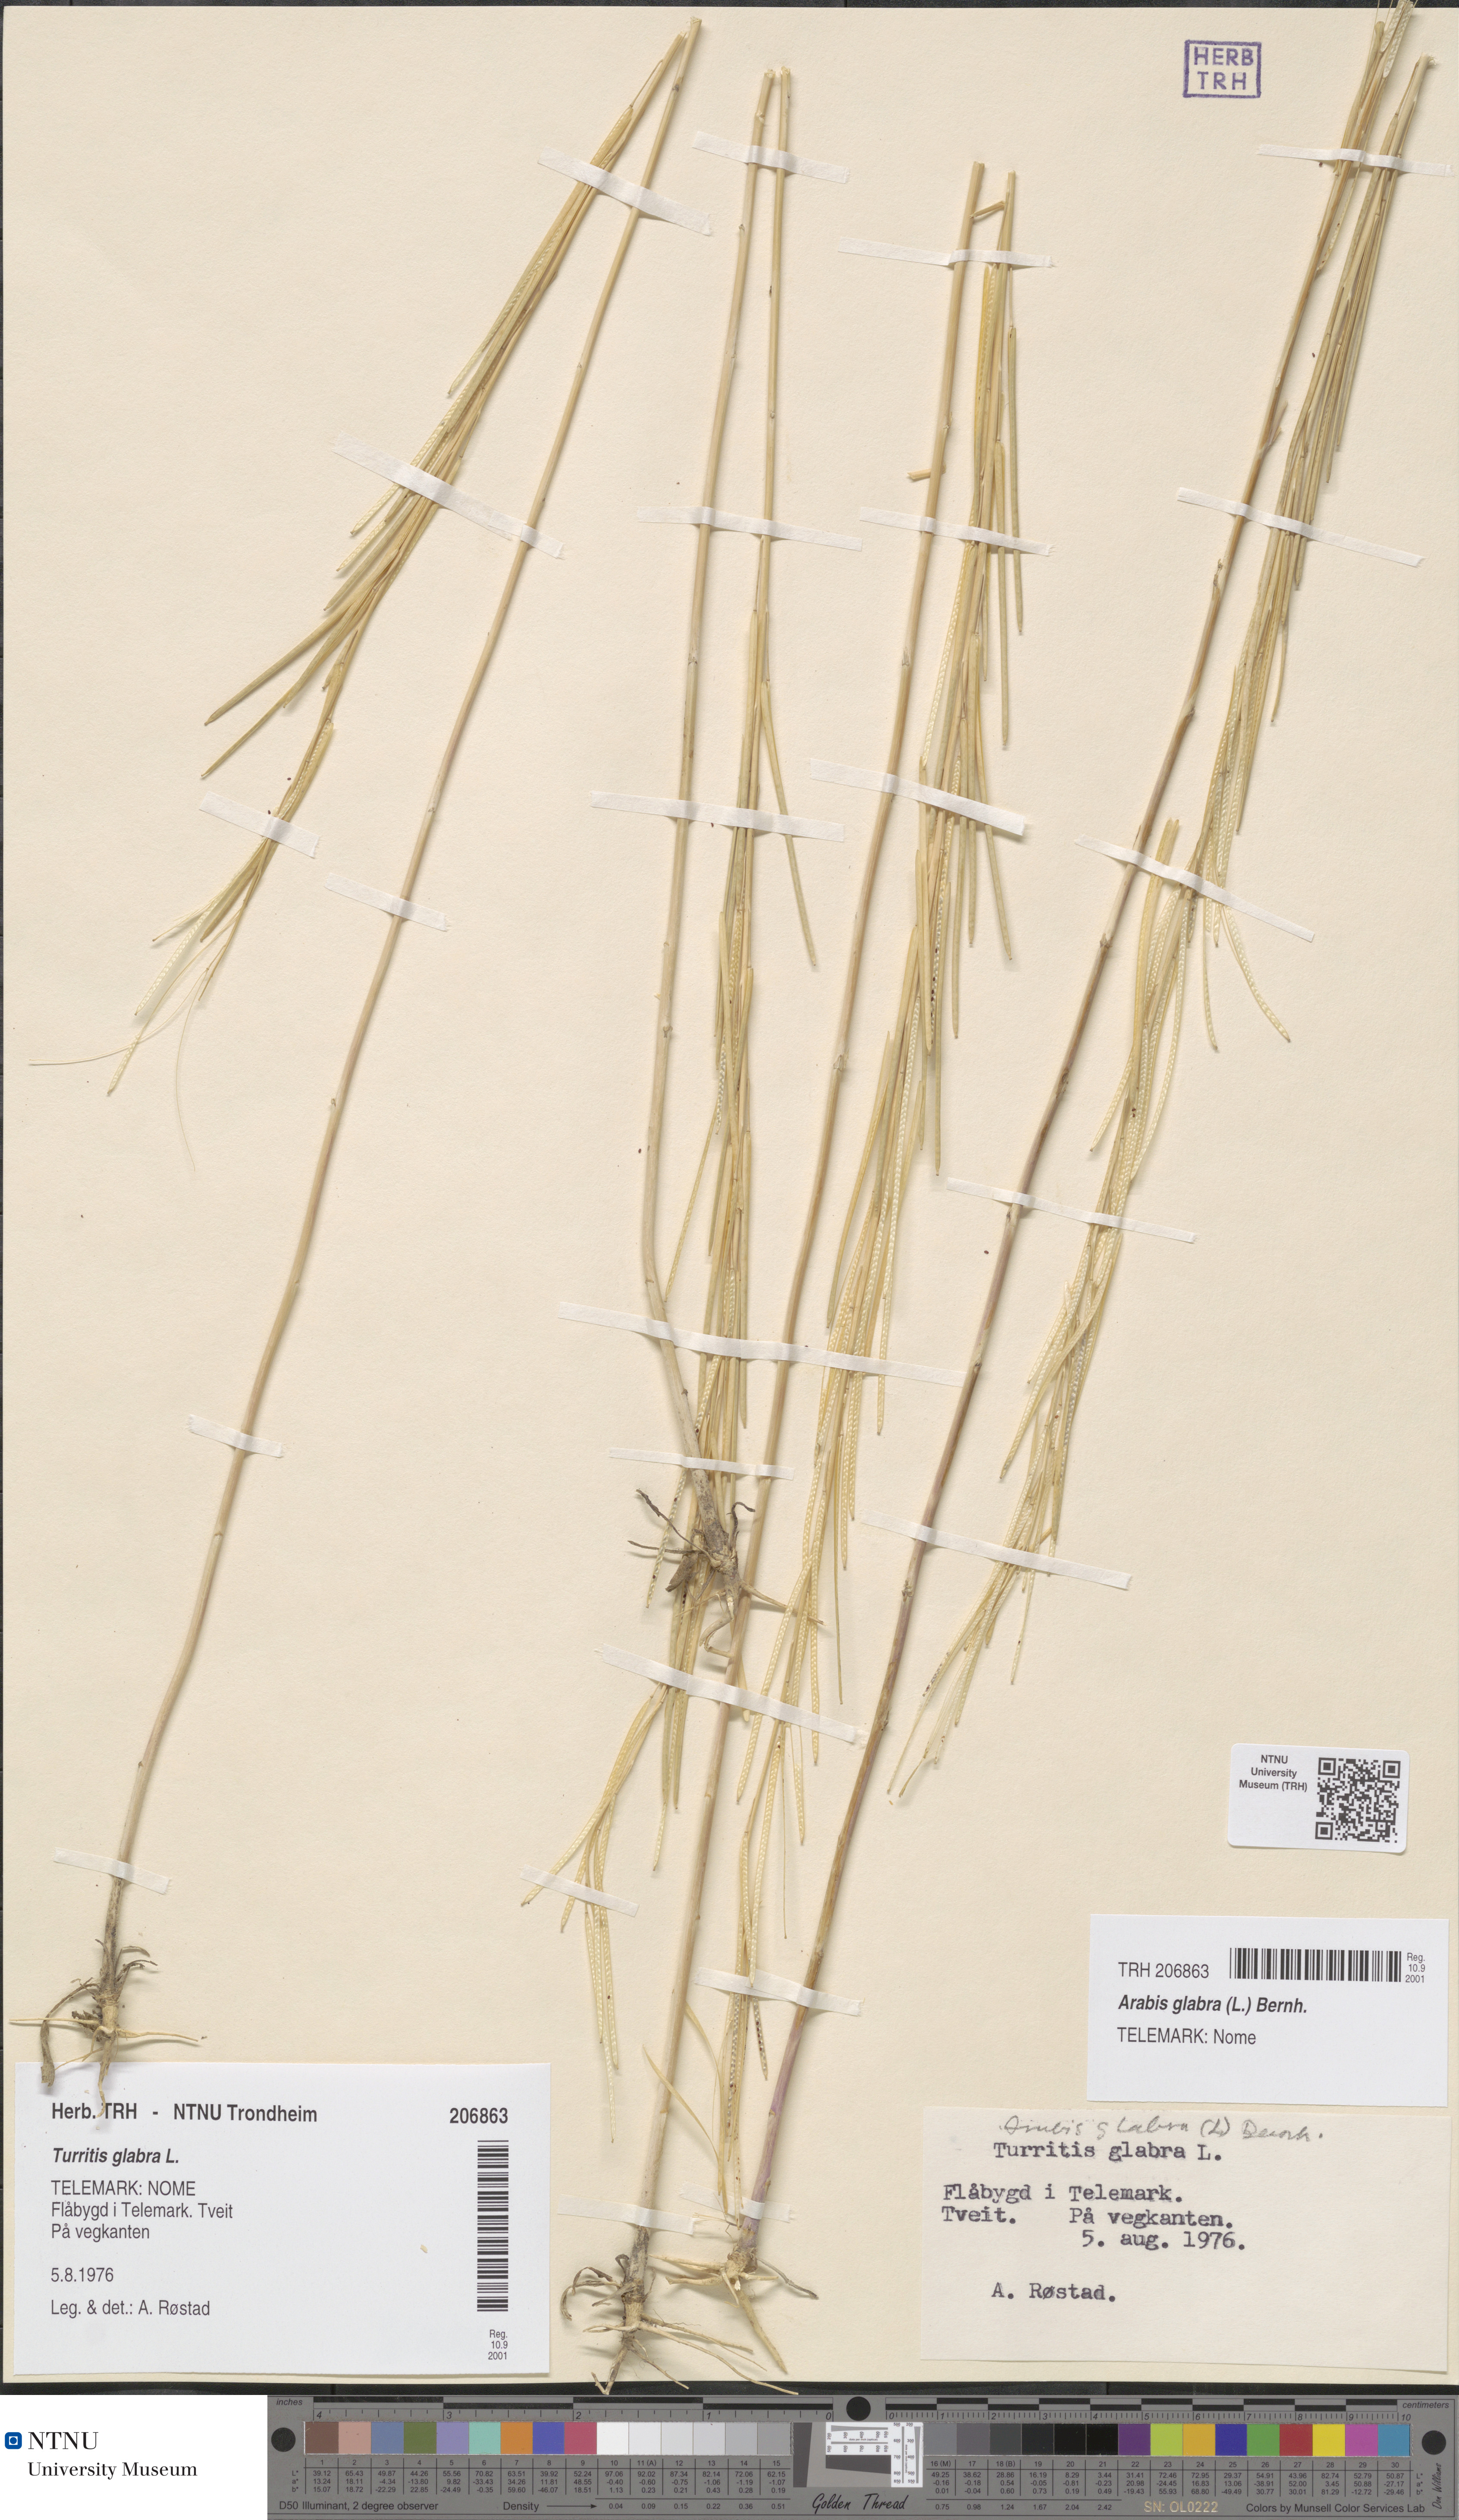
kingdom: Plantae
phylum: Tracheophyta
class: Magnoliopsida
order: Brassicales
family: Brassicaceae
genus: Turritis
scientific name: Turritis glabra
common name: Tower rockcress
